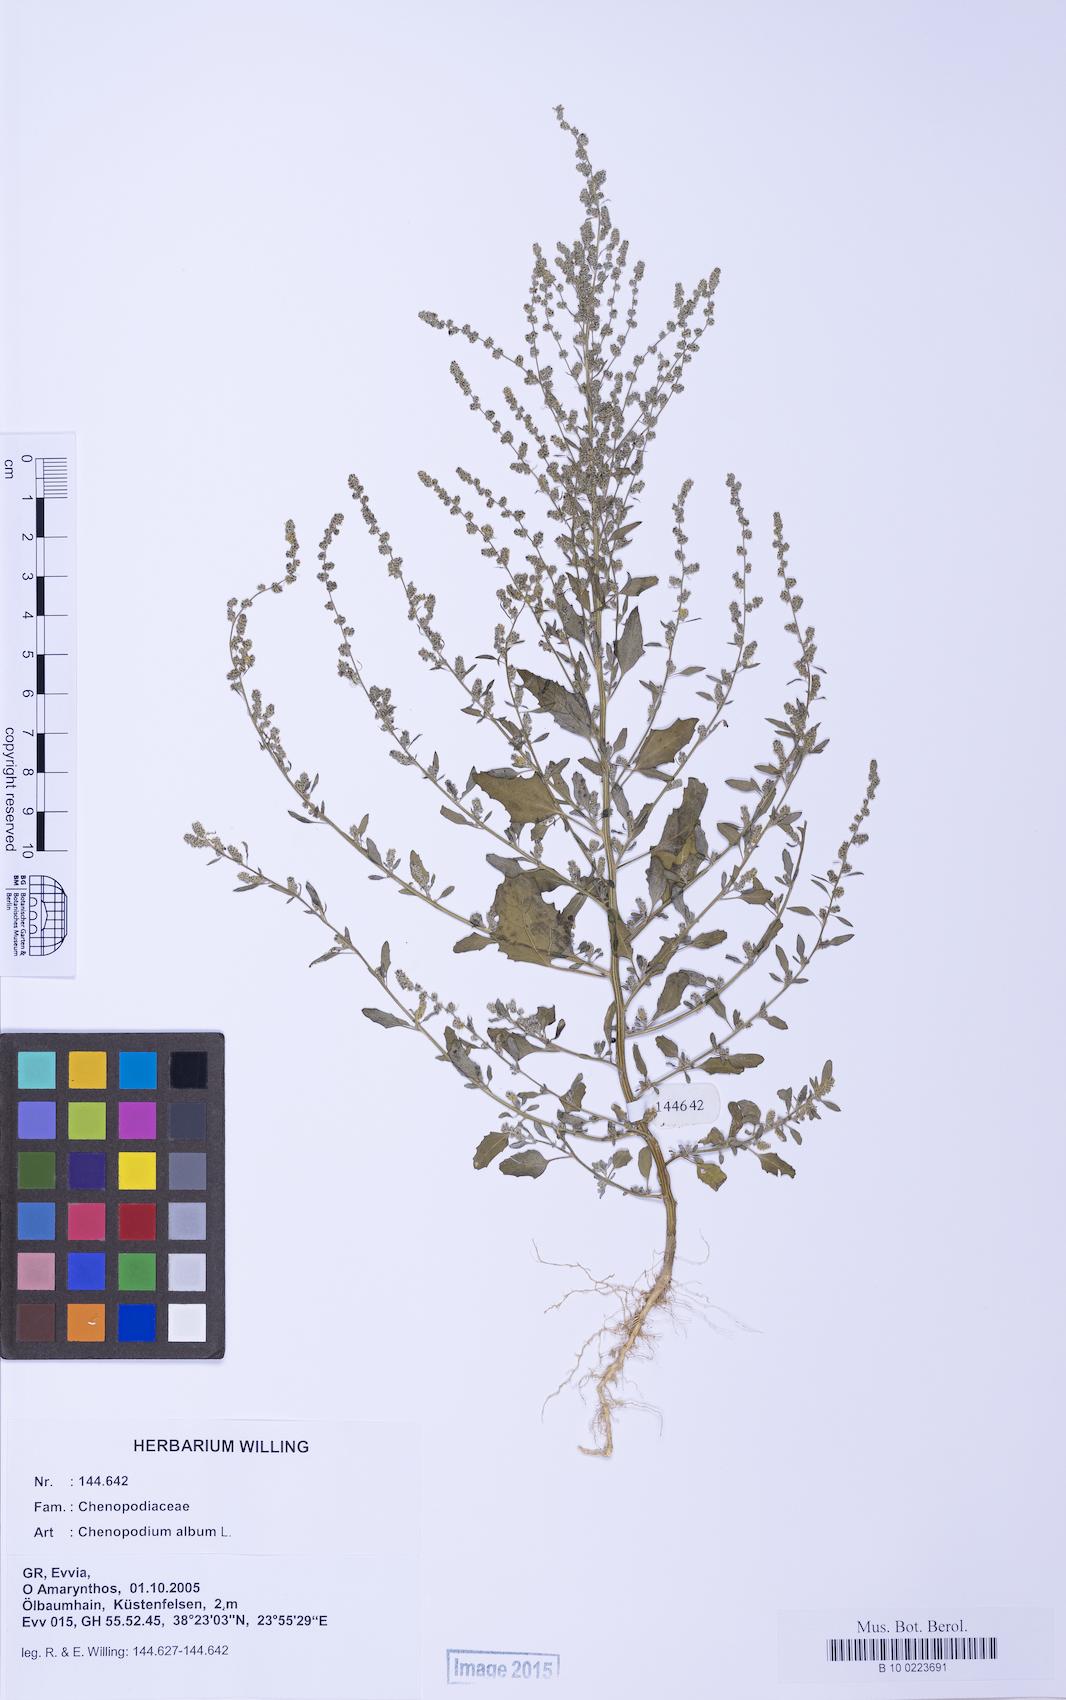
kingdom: Plantae
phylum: Tracheophyta
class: Magnoliopsida
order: Caryophyllales
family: Amaranthaceae
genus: Chenopodium
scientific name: Chenopodium striatiforme
